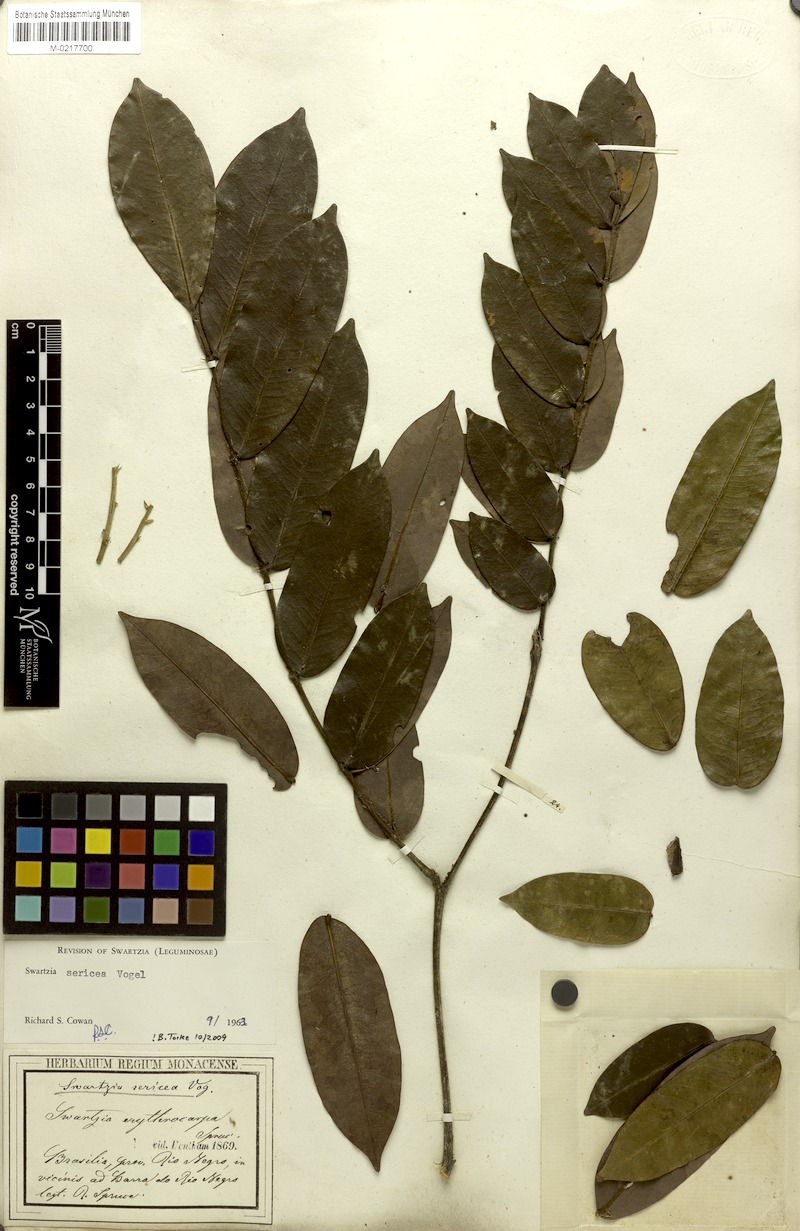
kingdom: Plantae
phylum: Tracheophyta
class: Magnoliopsida
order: Fabales
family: Fabaceae
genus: Swartzia
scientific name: Swartzia sericea
